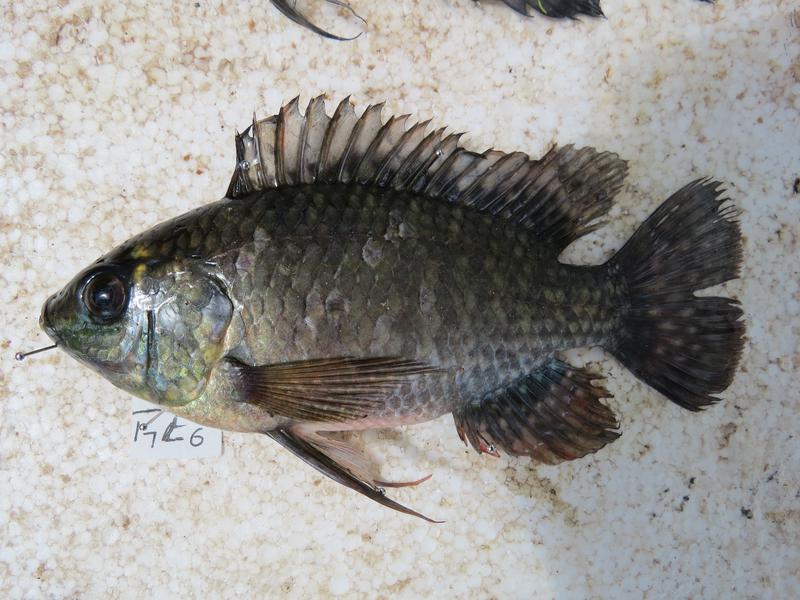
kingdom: Animalia
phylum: Chordata
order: Perciformes
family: Cichlidae
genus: Oreochromis
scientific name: Oreochromis leucostictus
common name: Blue spotted tilapia
